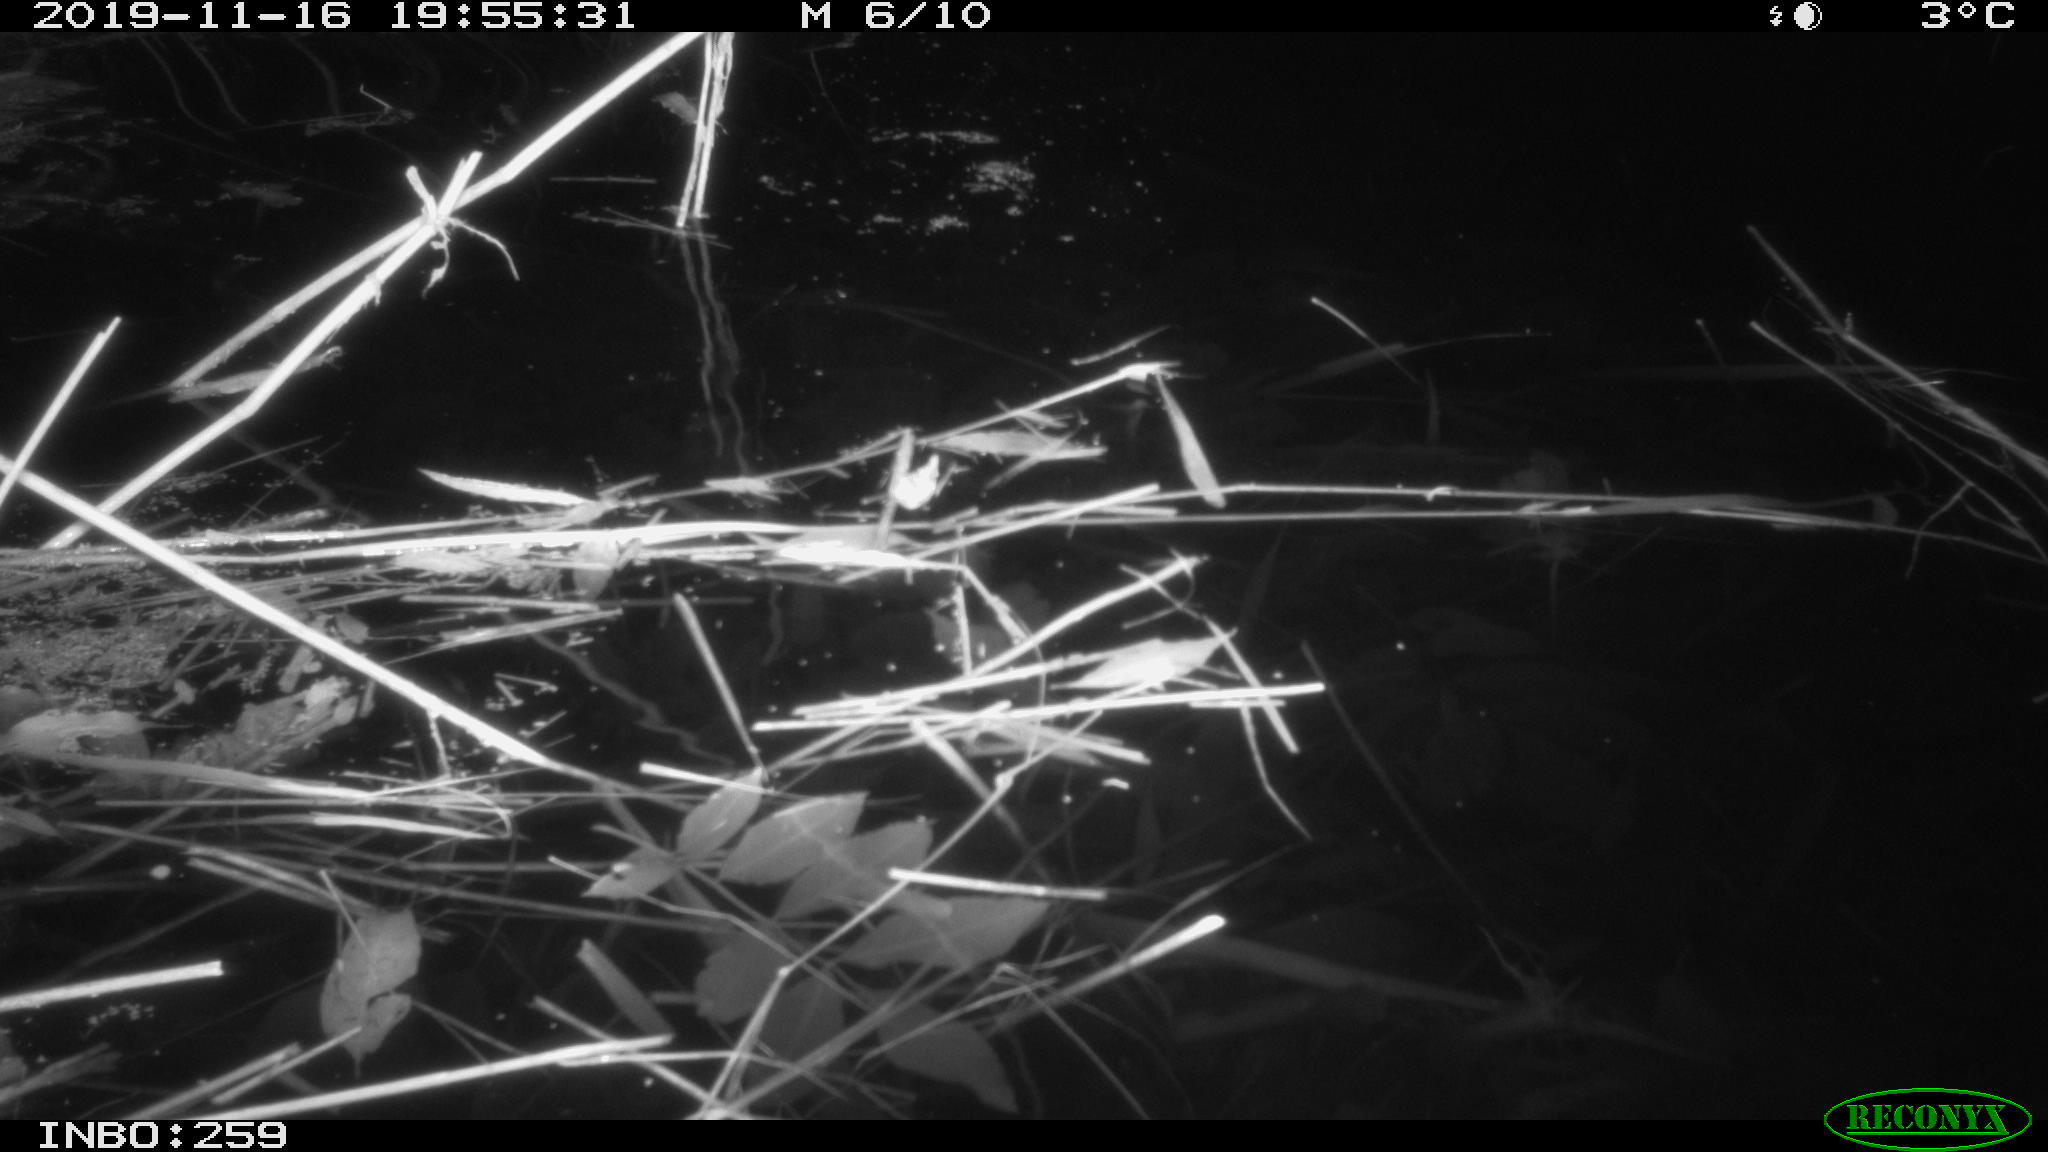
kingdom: Animalia
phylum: Chordata
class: Mammalia
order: Rodentia
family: Muridae
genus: Rattus
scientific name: Rattus norvegicus
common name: Brown rat
